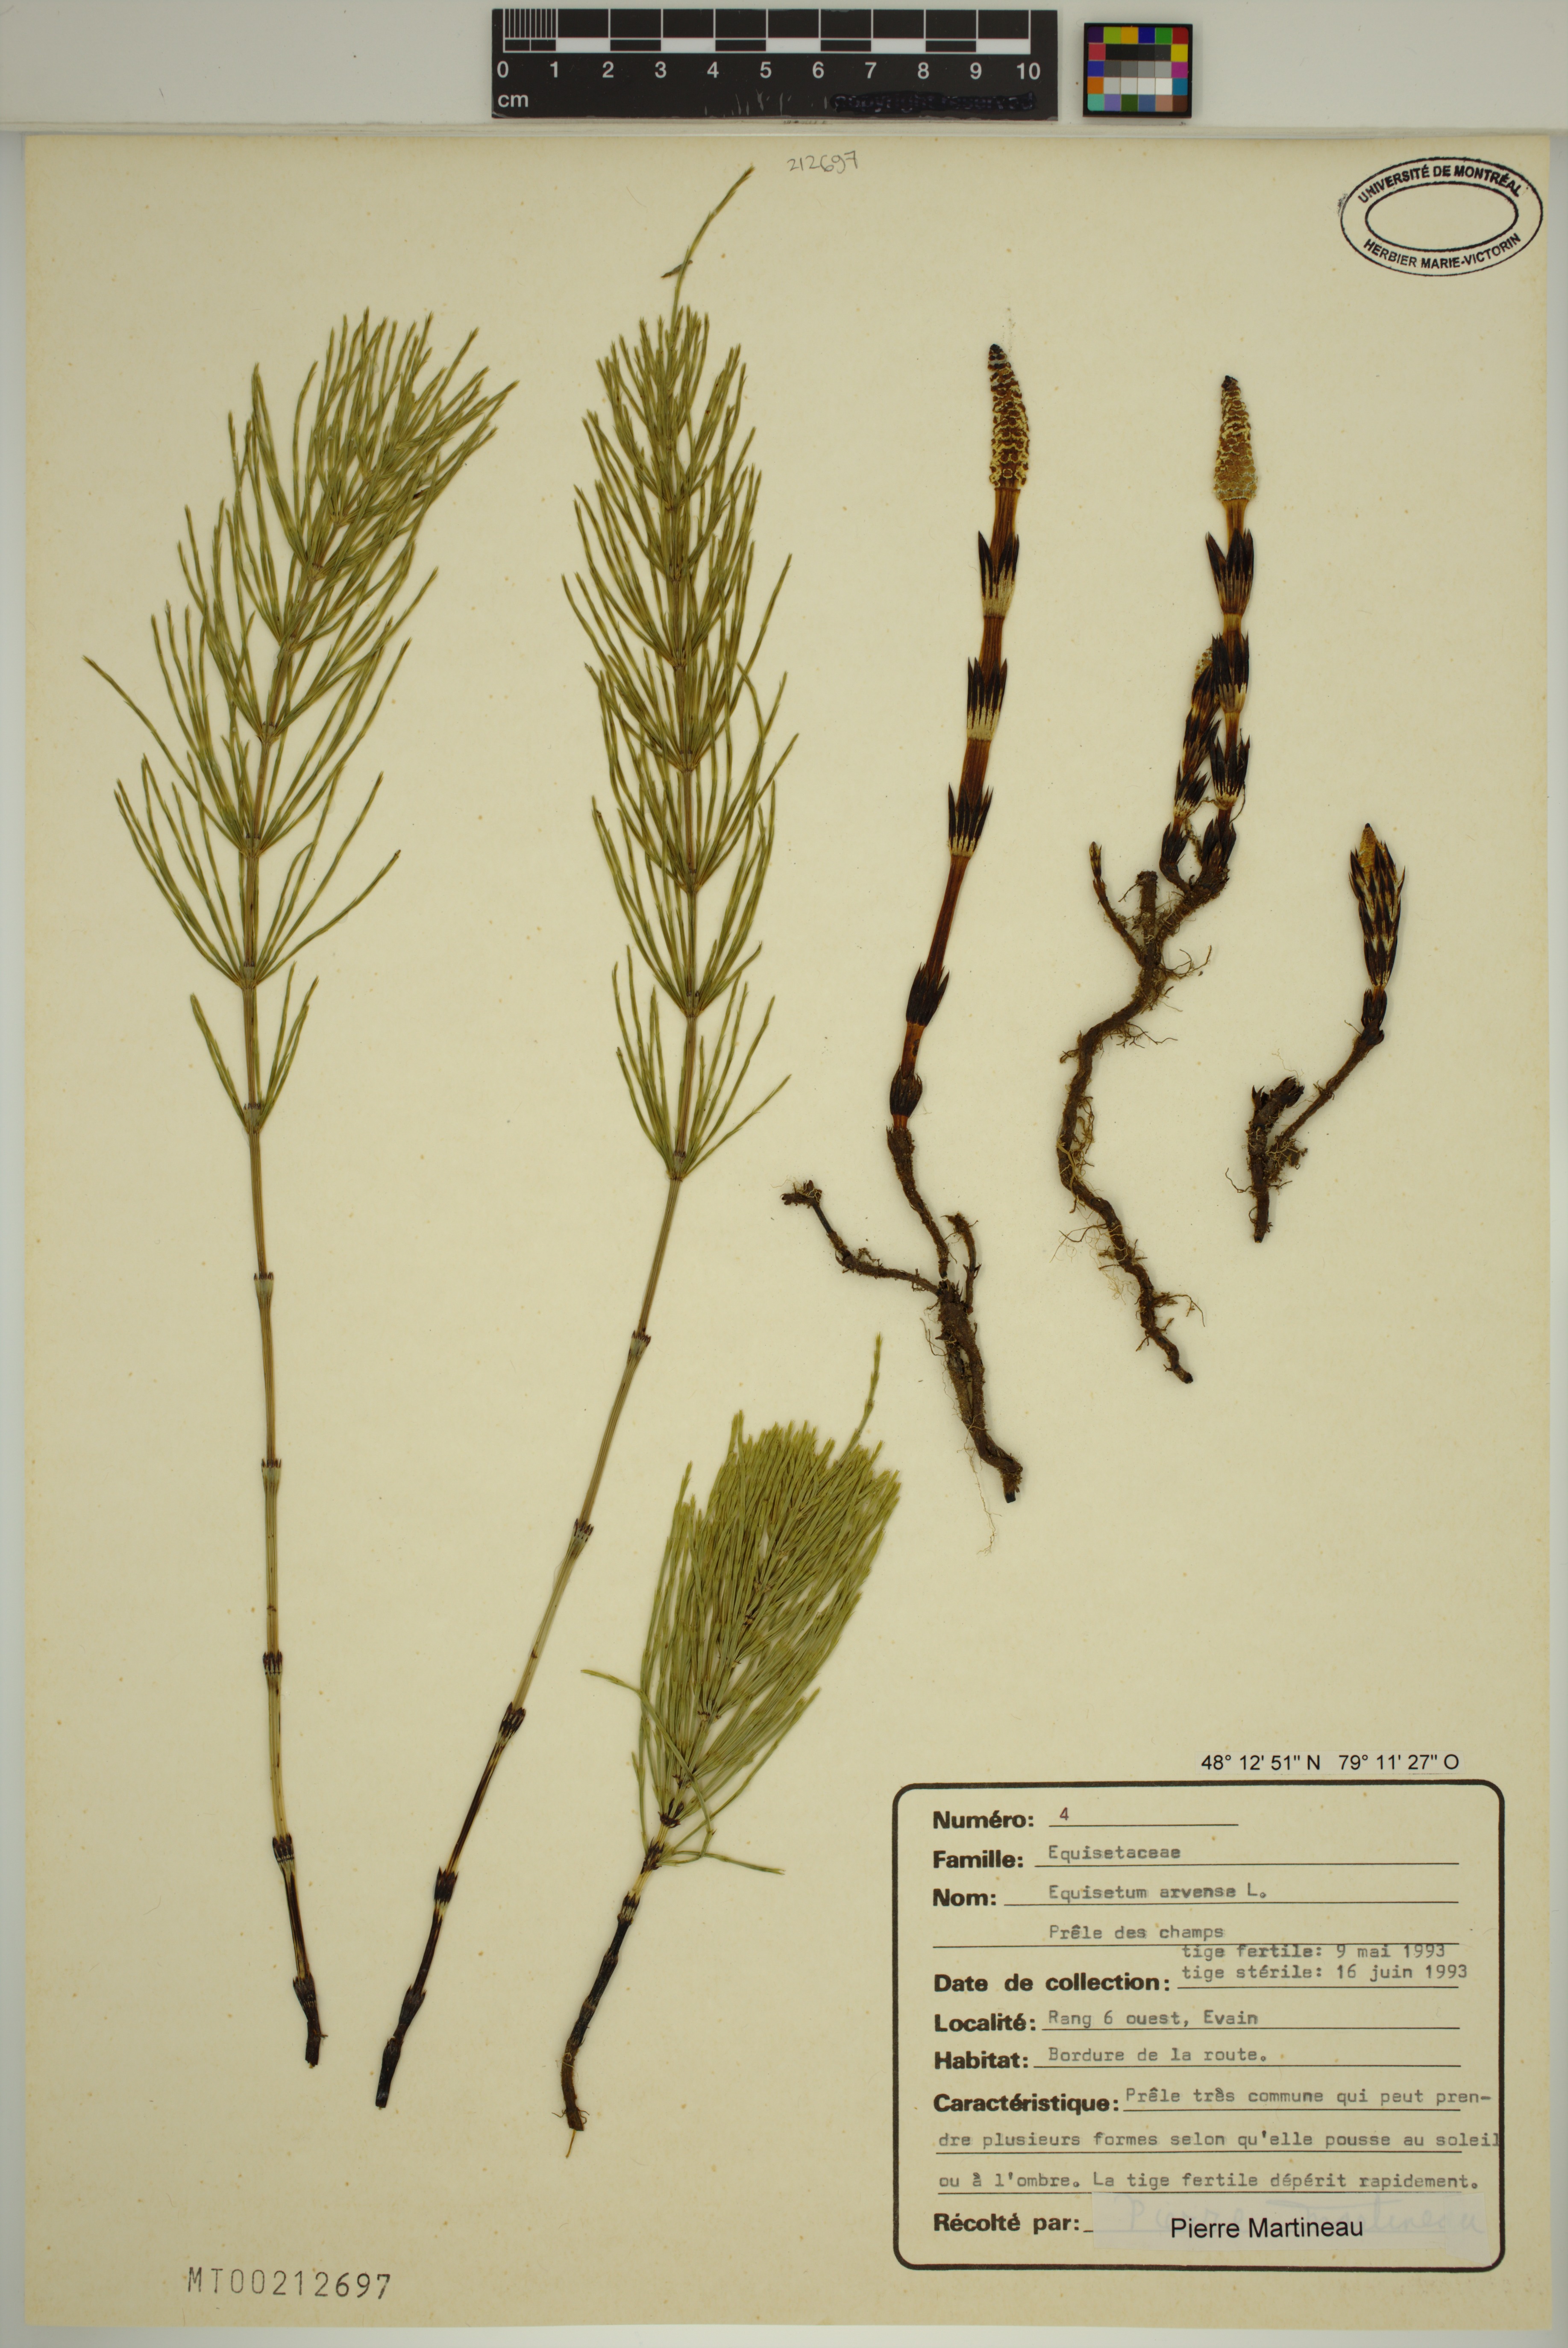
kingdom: Plantae
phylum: Tracheophyta
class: Polypodiopsida
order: Equisetales
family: Equisetaceae
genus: Equisetum
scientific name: Equisetum arvense
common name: Field horsetail
